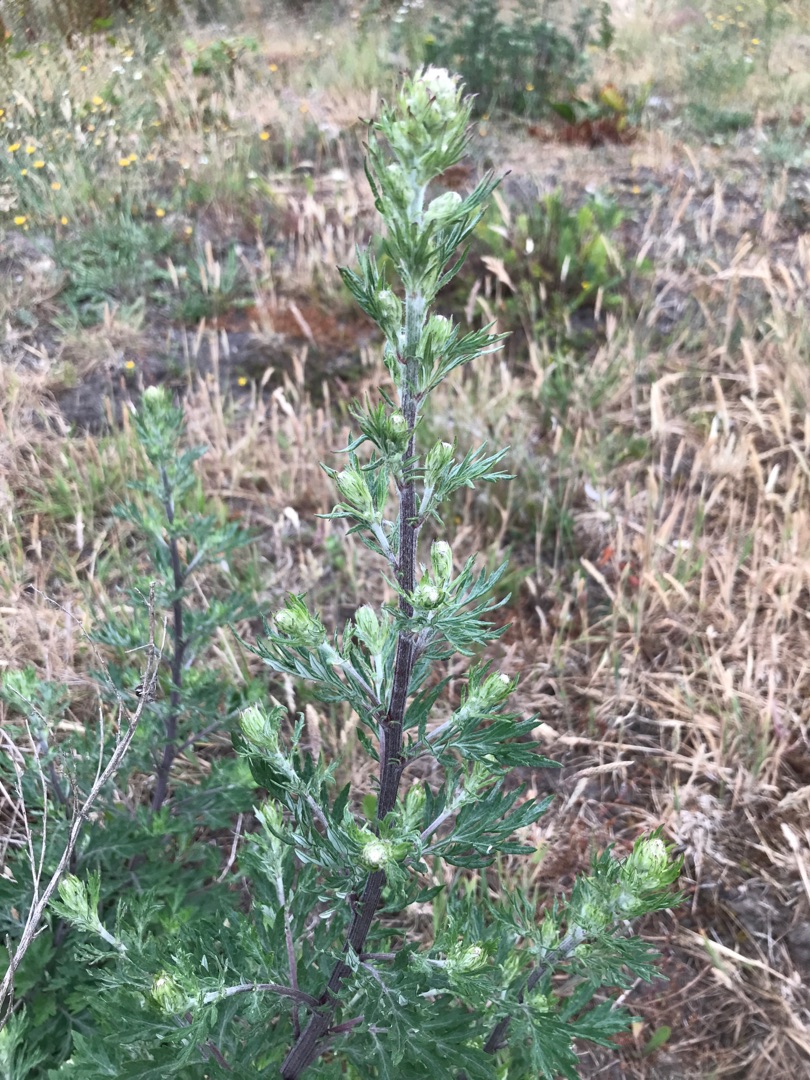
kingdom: Plantae
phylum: Tracheophyta
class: Magnoliopsida
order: Asterales
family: Asteraceae
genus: Artemisia
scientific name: Artemisia vulgaris
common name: Grå-bynke
